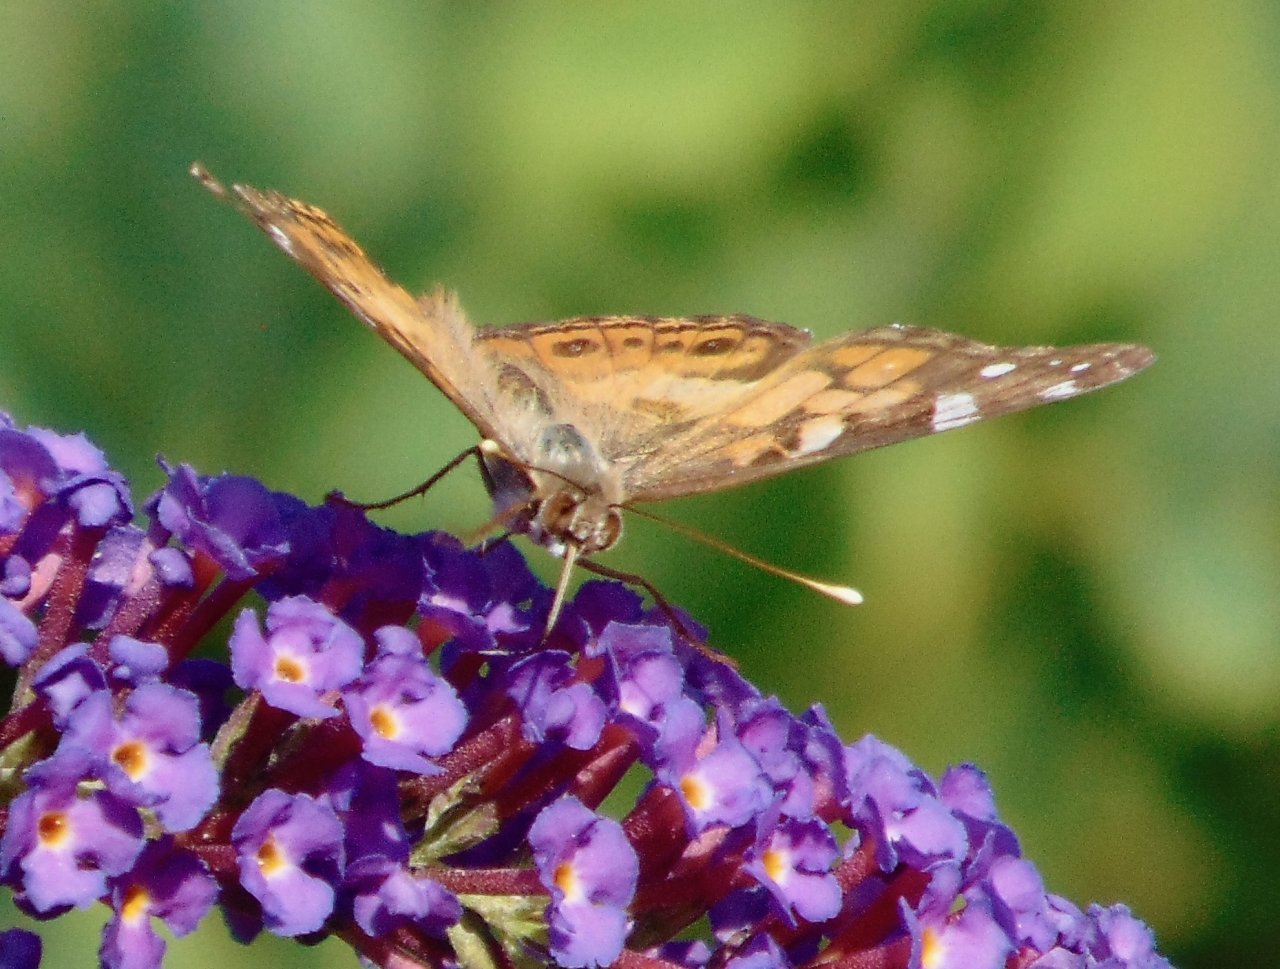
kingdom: Animalia
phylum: Arthropoda
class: Insecta
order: Lepidoptera
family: Nymphalidae
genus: Vanessa
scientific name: Vanessa virginiensis
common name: American Lady
